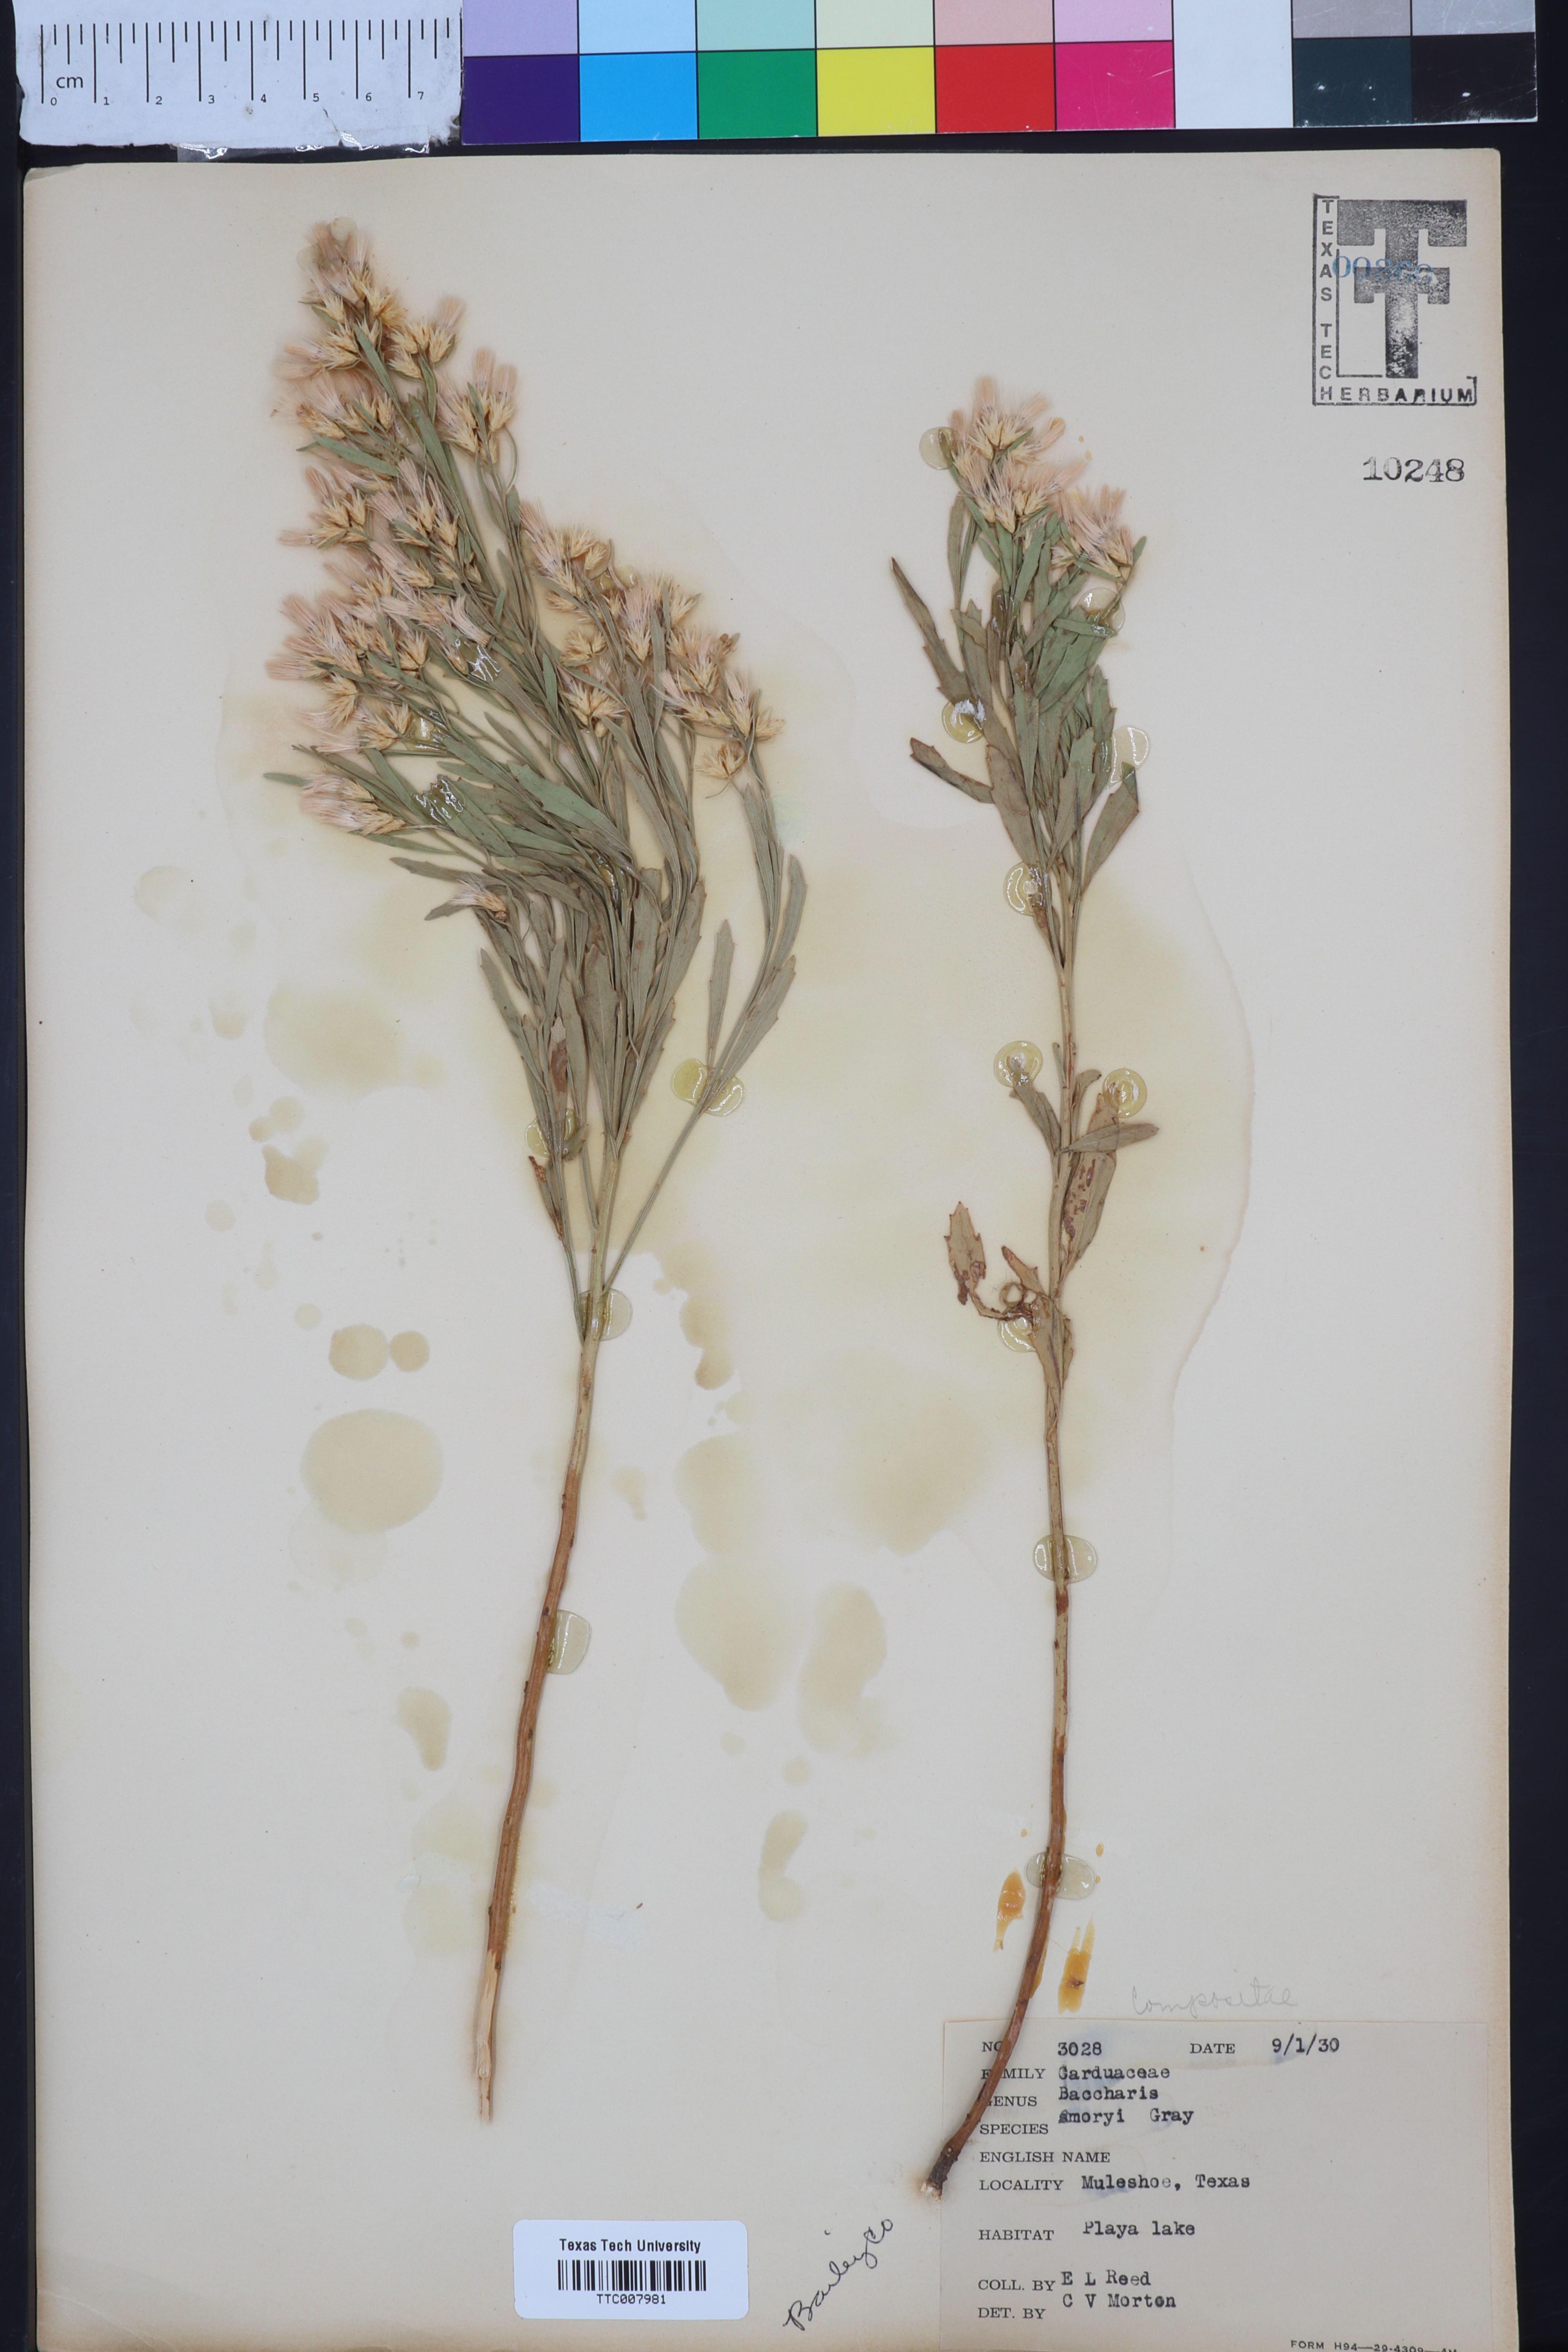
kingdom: Plantae
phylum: Tracheophyta
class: Magnoliopsida
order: Asterales
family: Asteraceae
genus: Baccharis
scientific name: Baccharis salicina
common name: Willow baccharis
